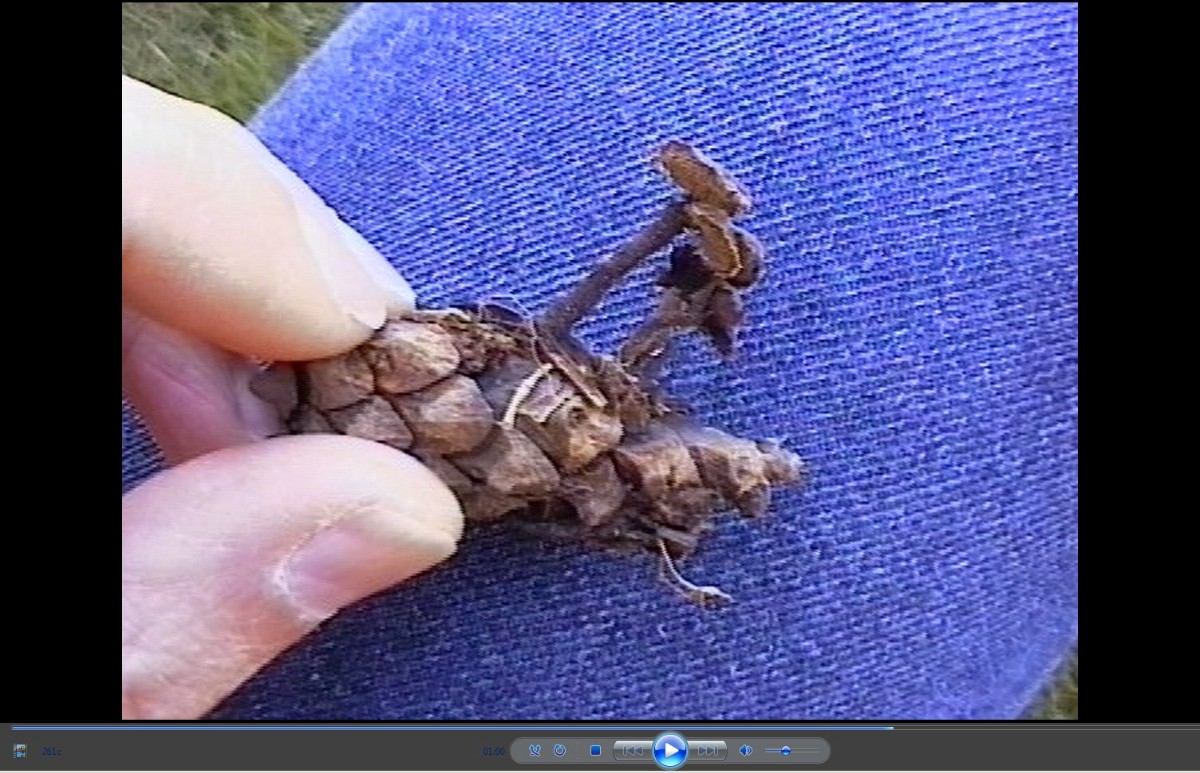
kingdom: Fungi
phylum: Basidiomycota
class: Agaricomycetes
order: Russulales
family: Auriscalpiaceae
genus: Auriscalpium
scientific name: Auriscalpium vulgare
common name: koglepigsvamp
